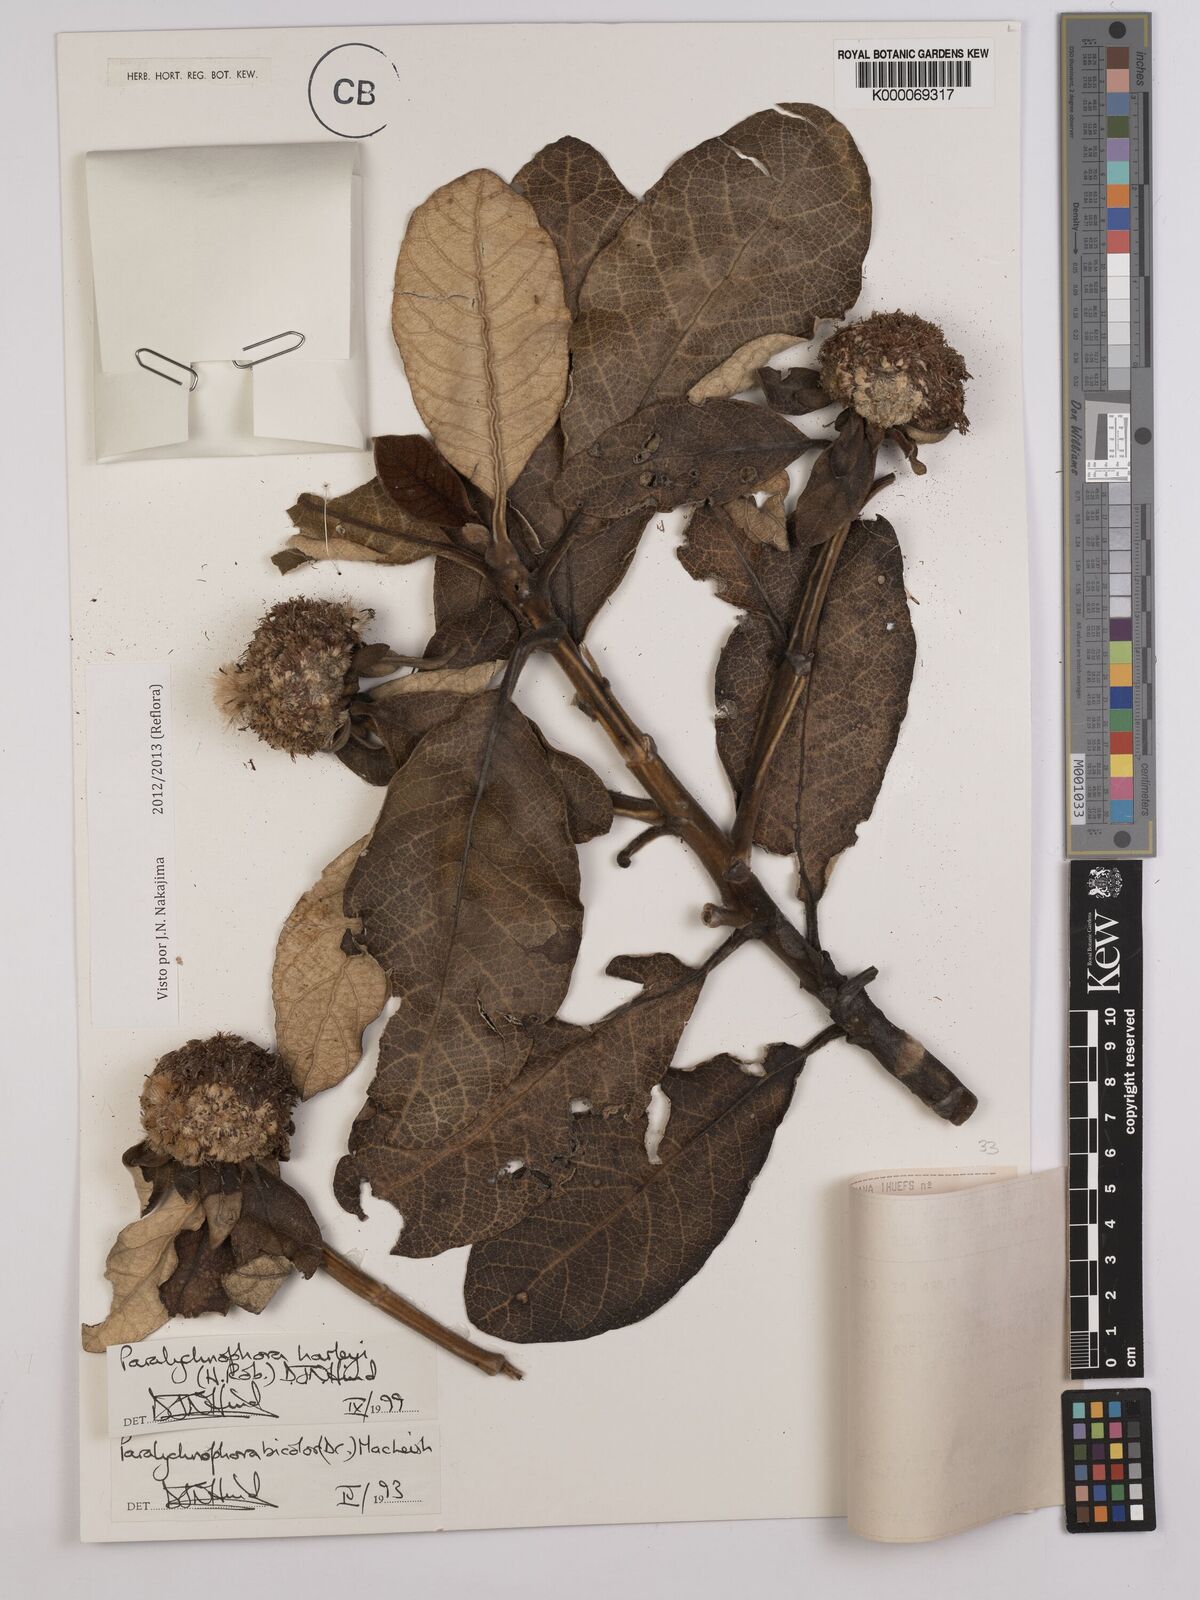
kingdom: Plantae
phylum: Tracheophyta
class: Magnoliopsida
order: Asterales
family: Asteraceae
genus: Paralychnophora
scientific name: Paralychnophora harleyi
